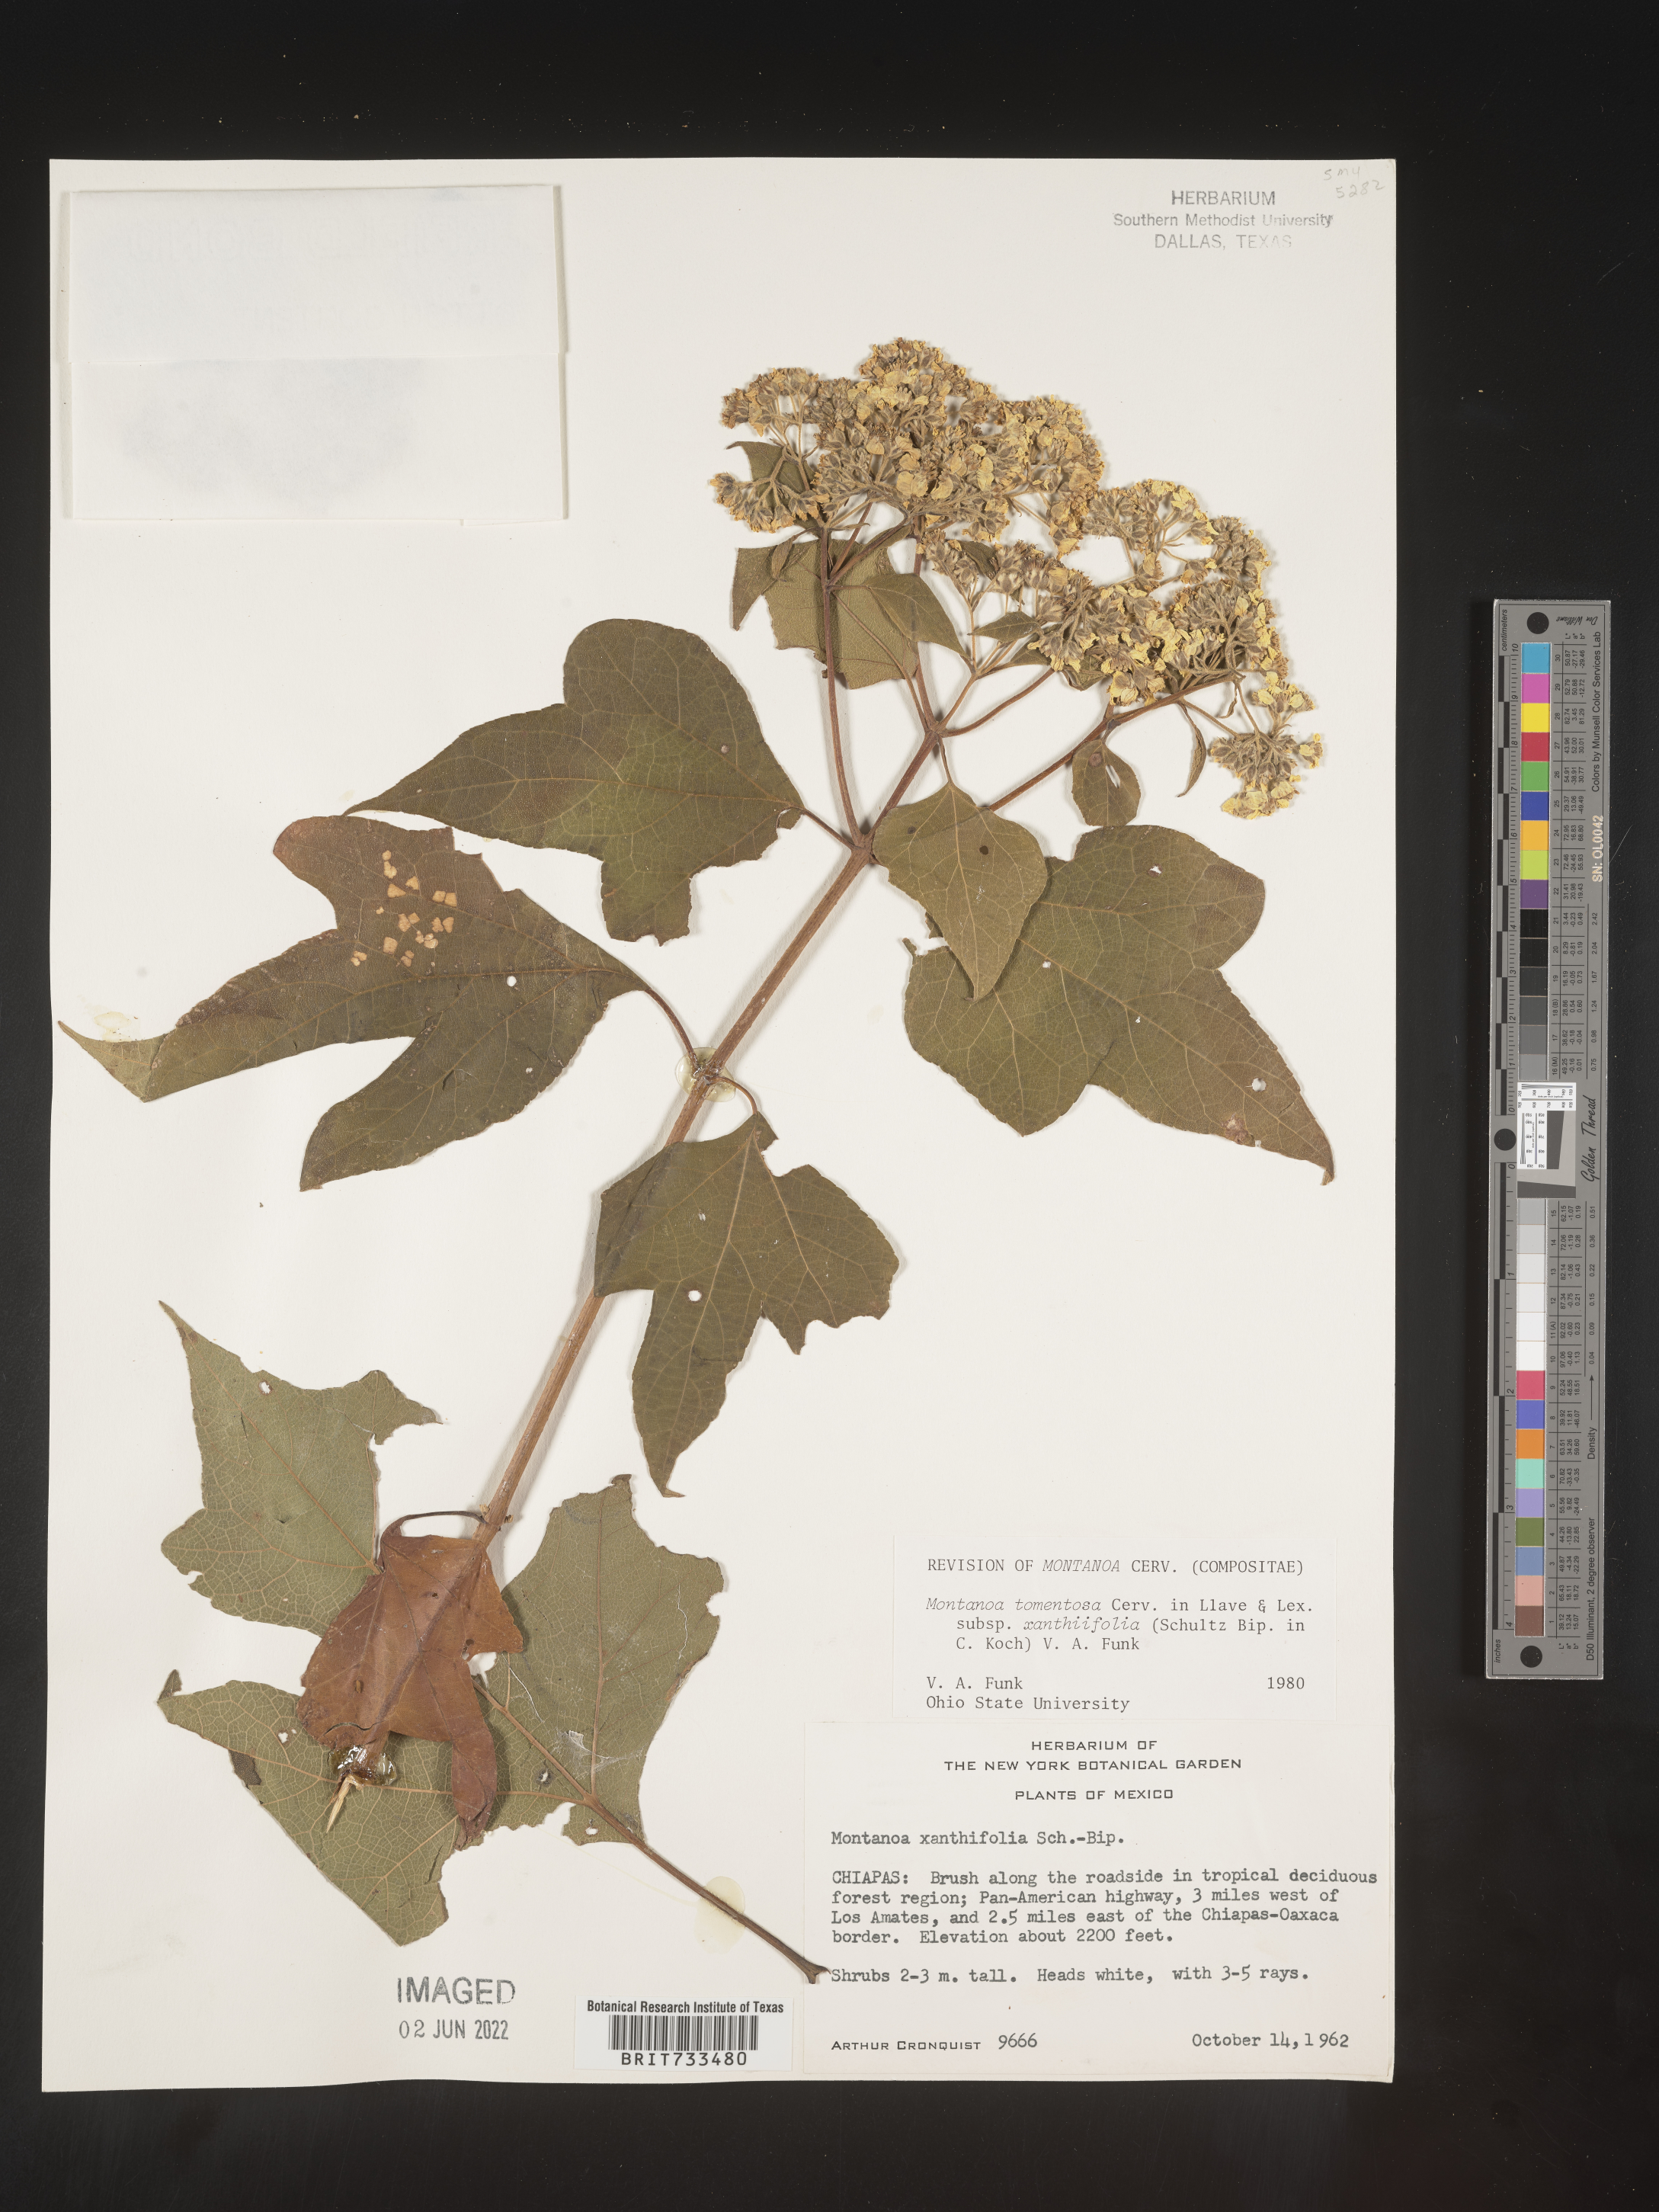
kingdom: Plantae
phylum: Tracheophyta
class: Magnoliopsida
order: Asterales
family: Asteraceae
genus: Montanoa
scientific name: Montanoa
